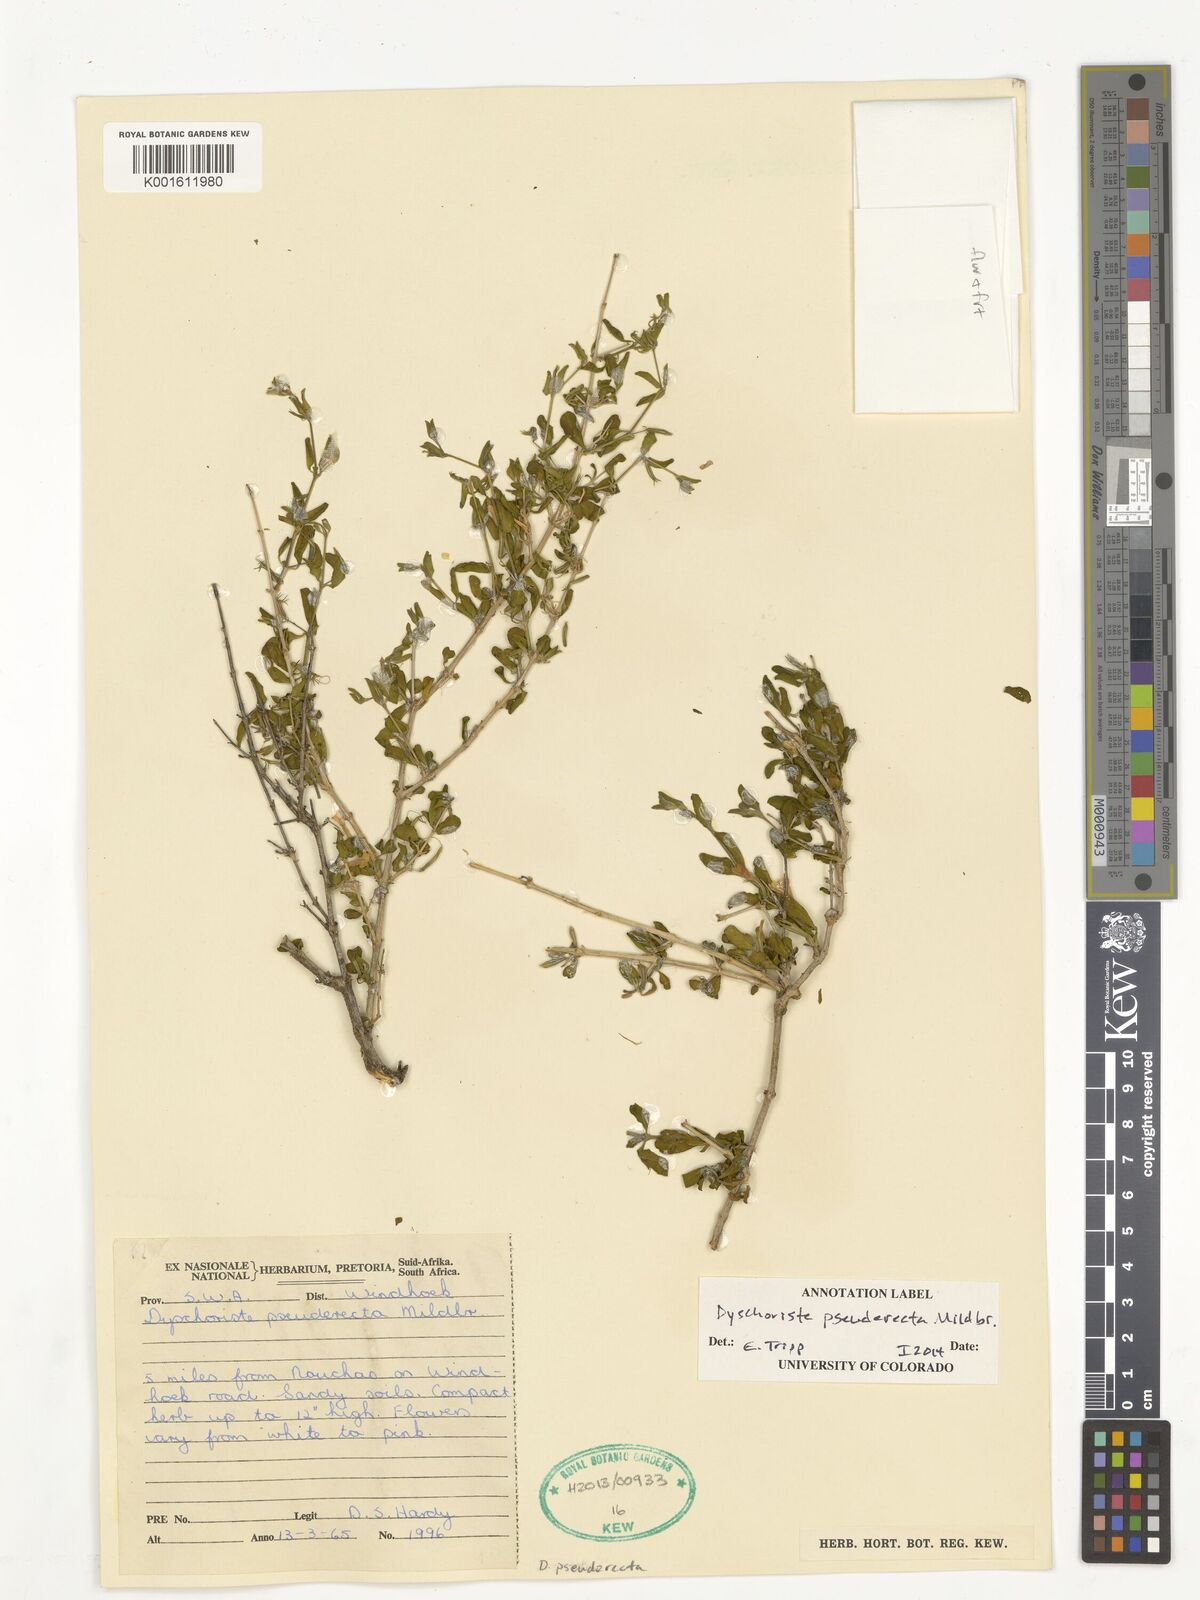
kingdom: Plantae
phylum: Tracheophyta
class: Magnoliopsida
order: Lamiales
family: Acanthaceae
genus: Dyschoriste
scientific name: Dyschoriste pseuderecta
